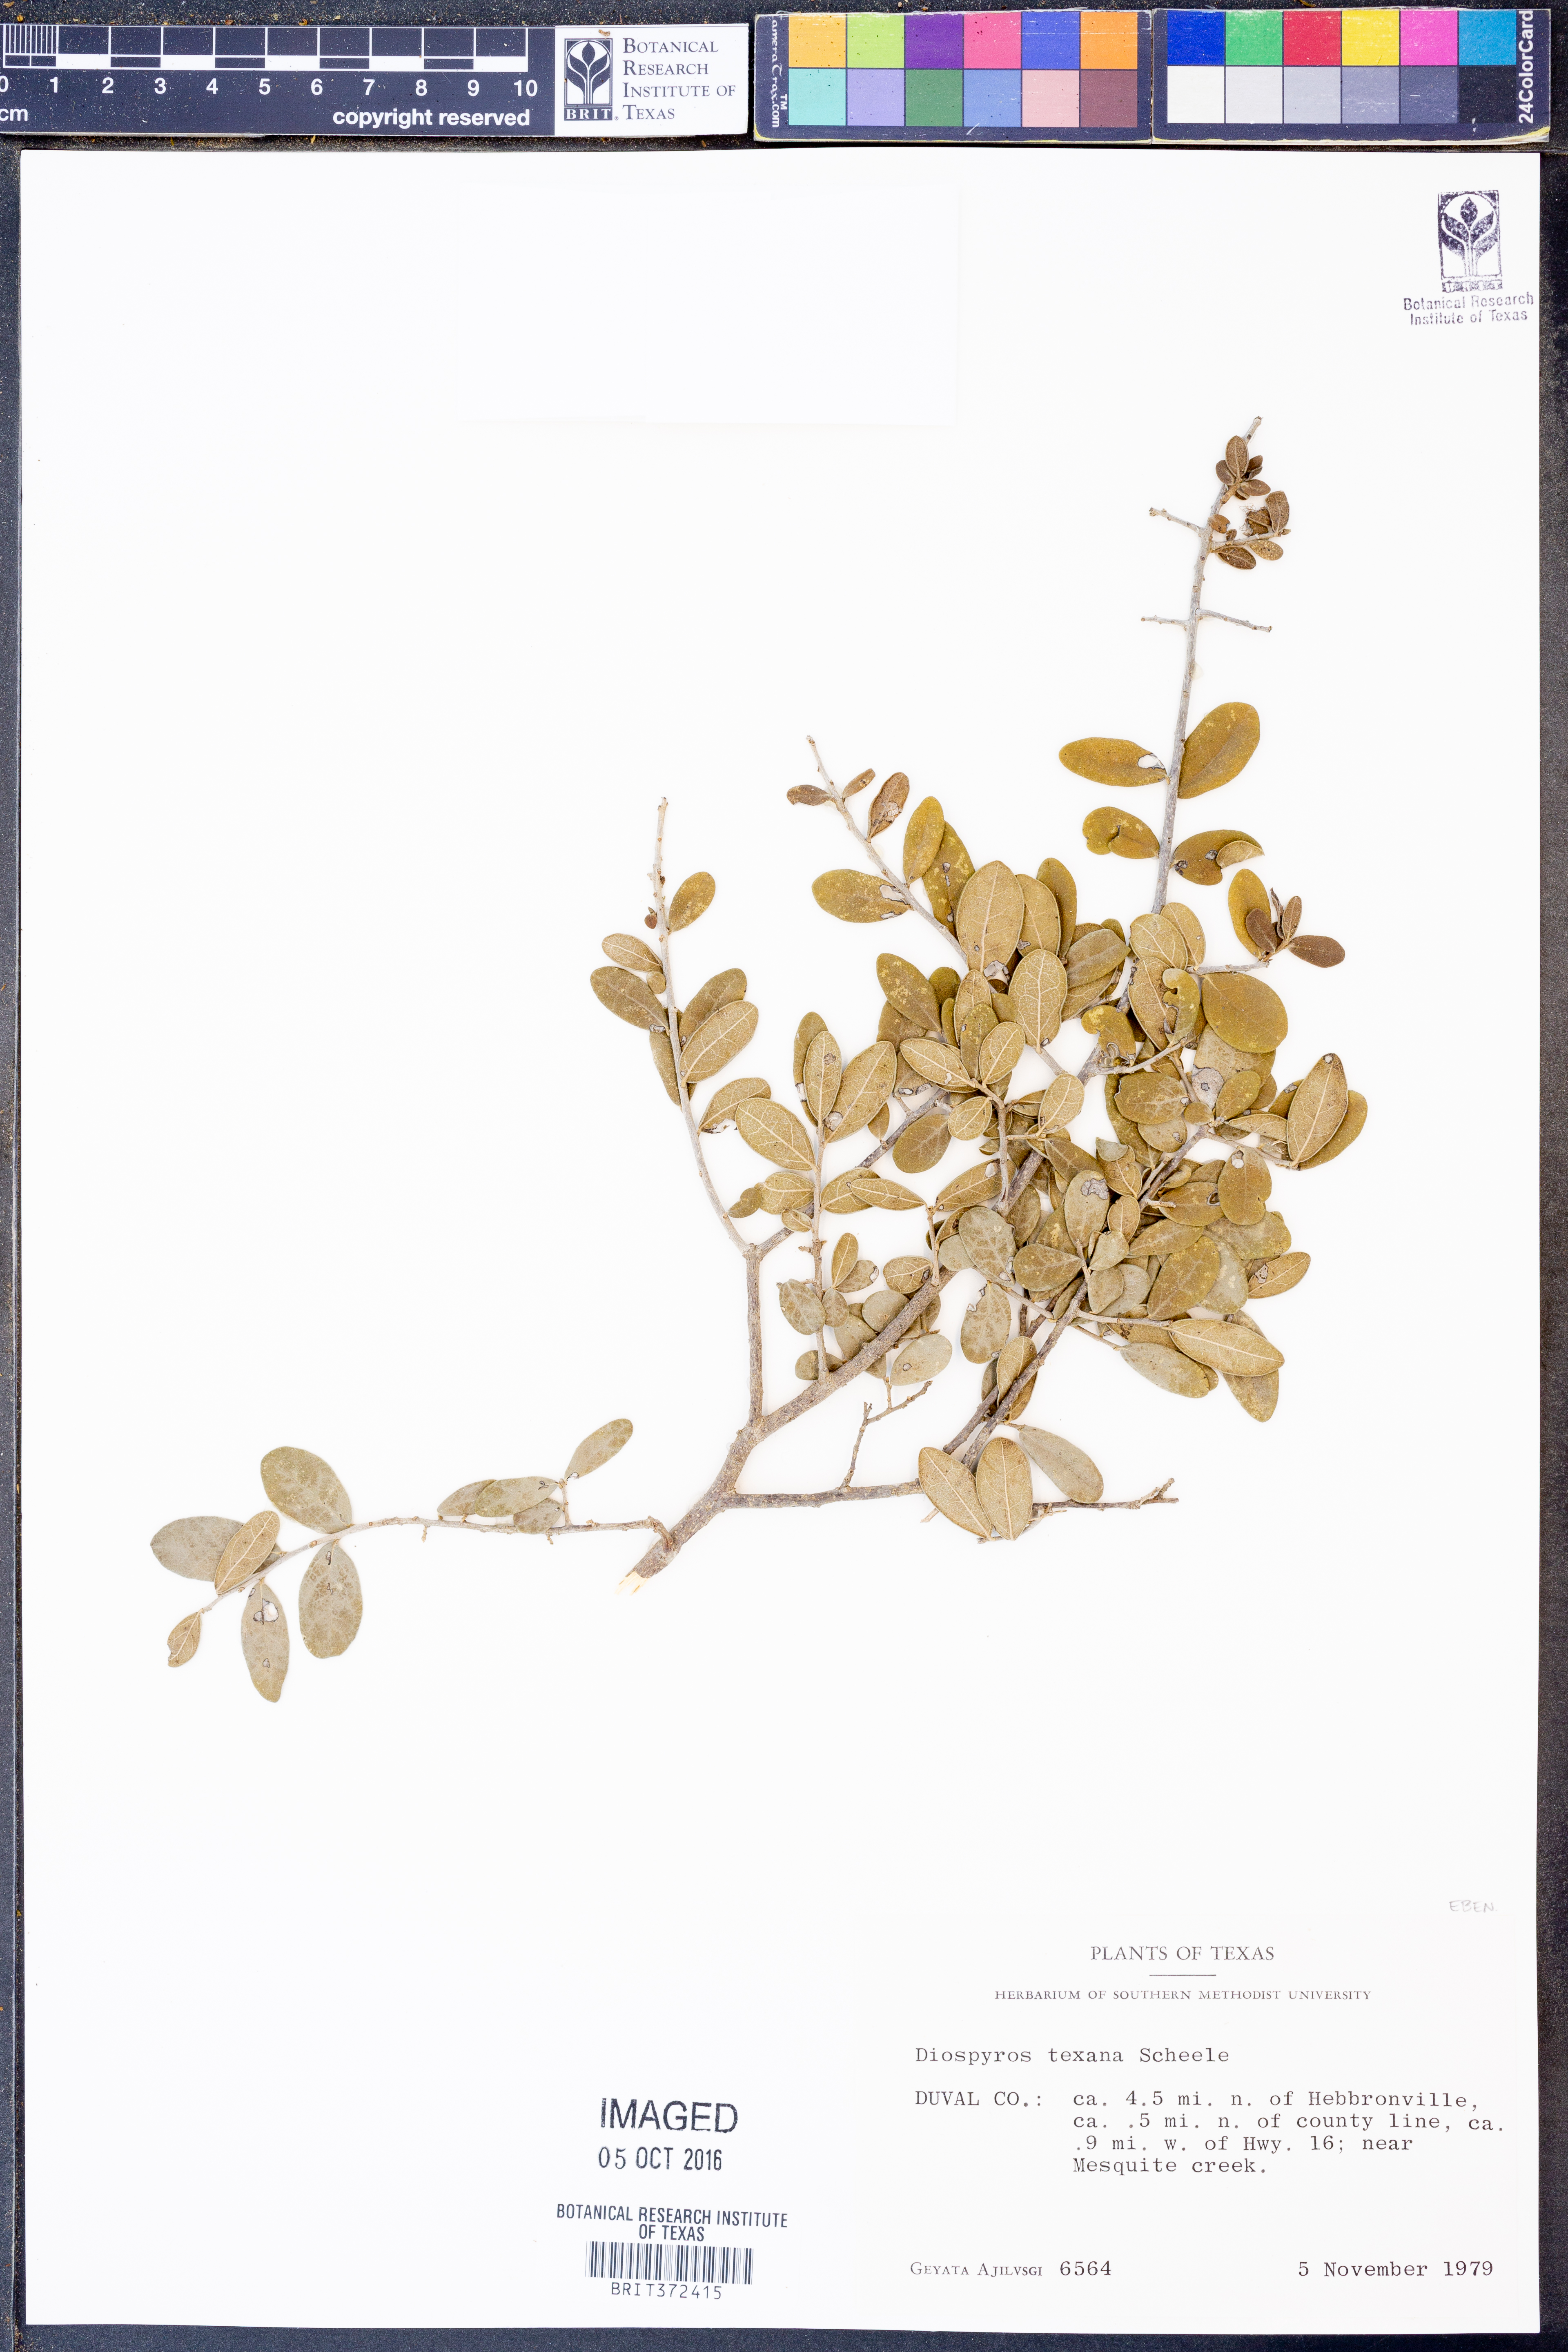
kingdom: Plantae
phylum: Tracheophyta
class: Magnoliopsida
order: Ericales
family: Ebenaceae
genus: Diospyros
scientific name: Diospyros texana
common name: Texas persimmon
